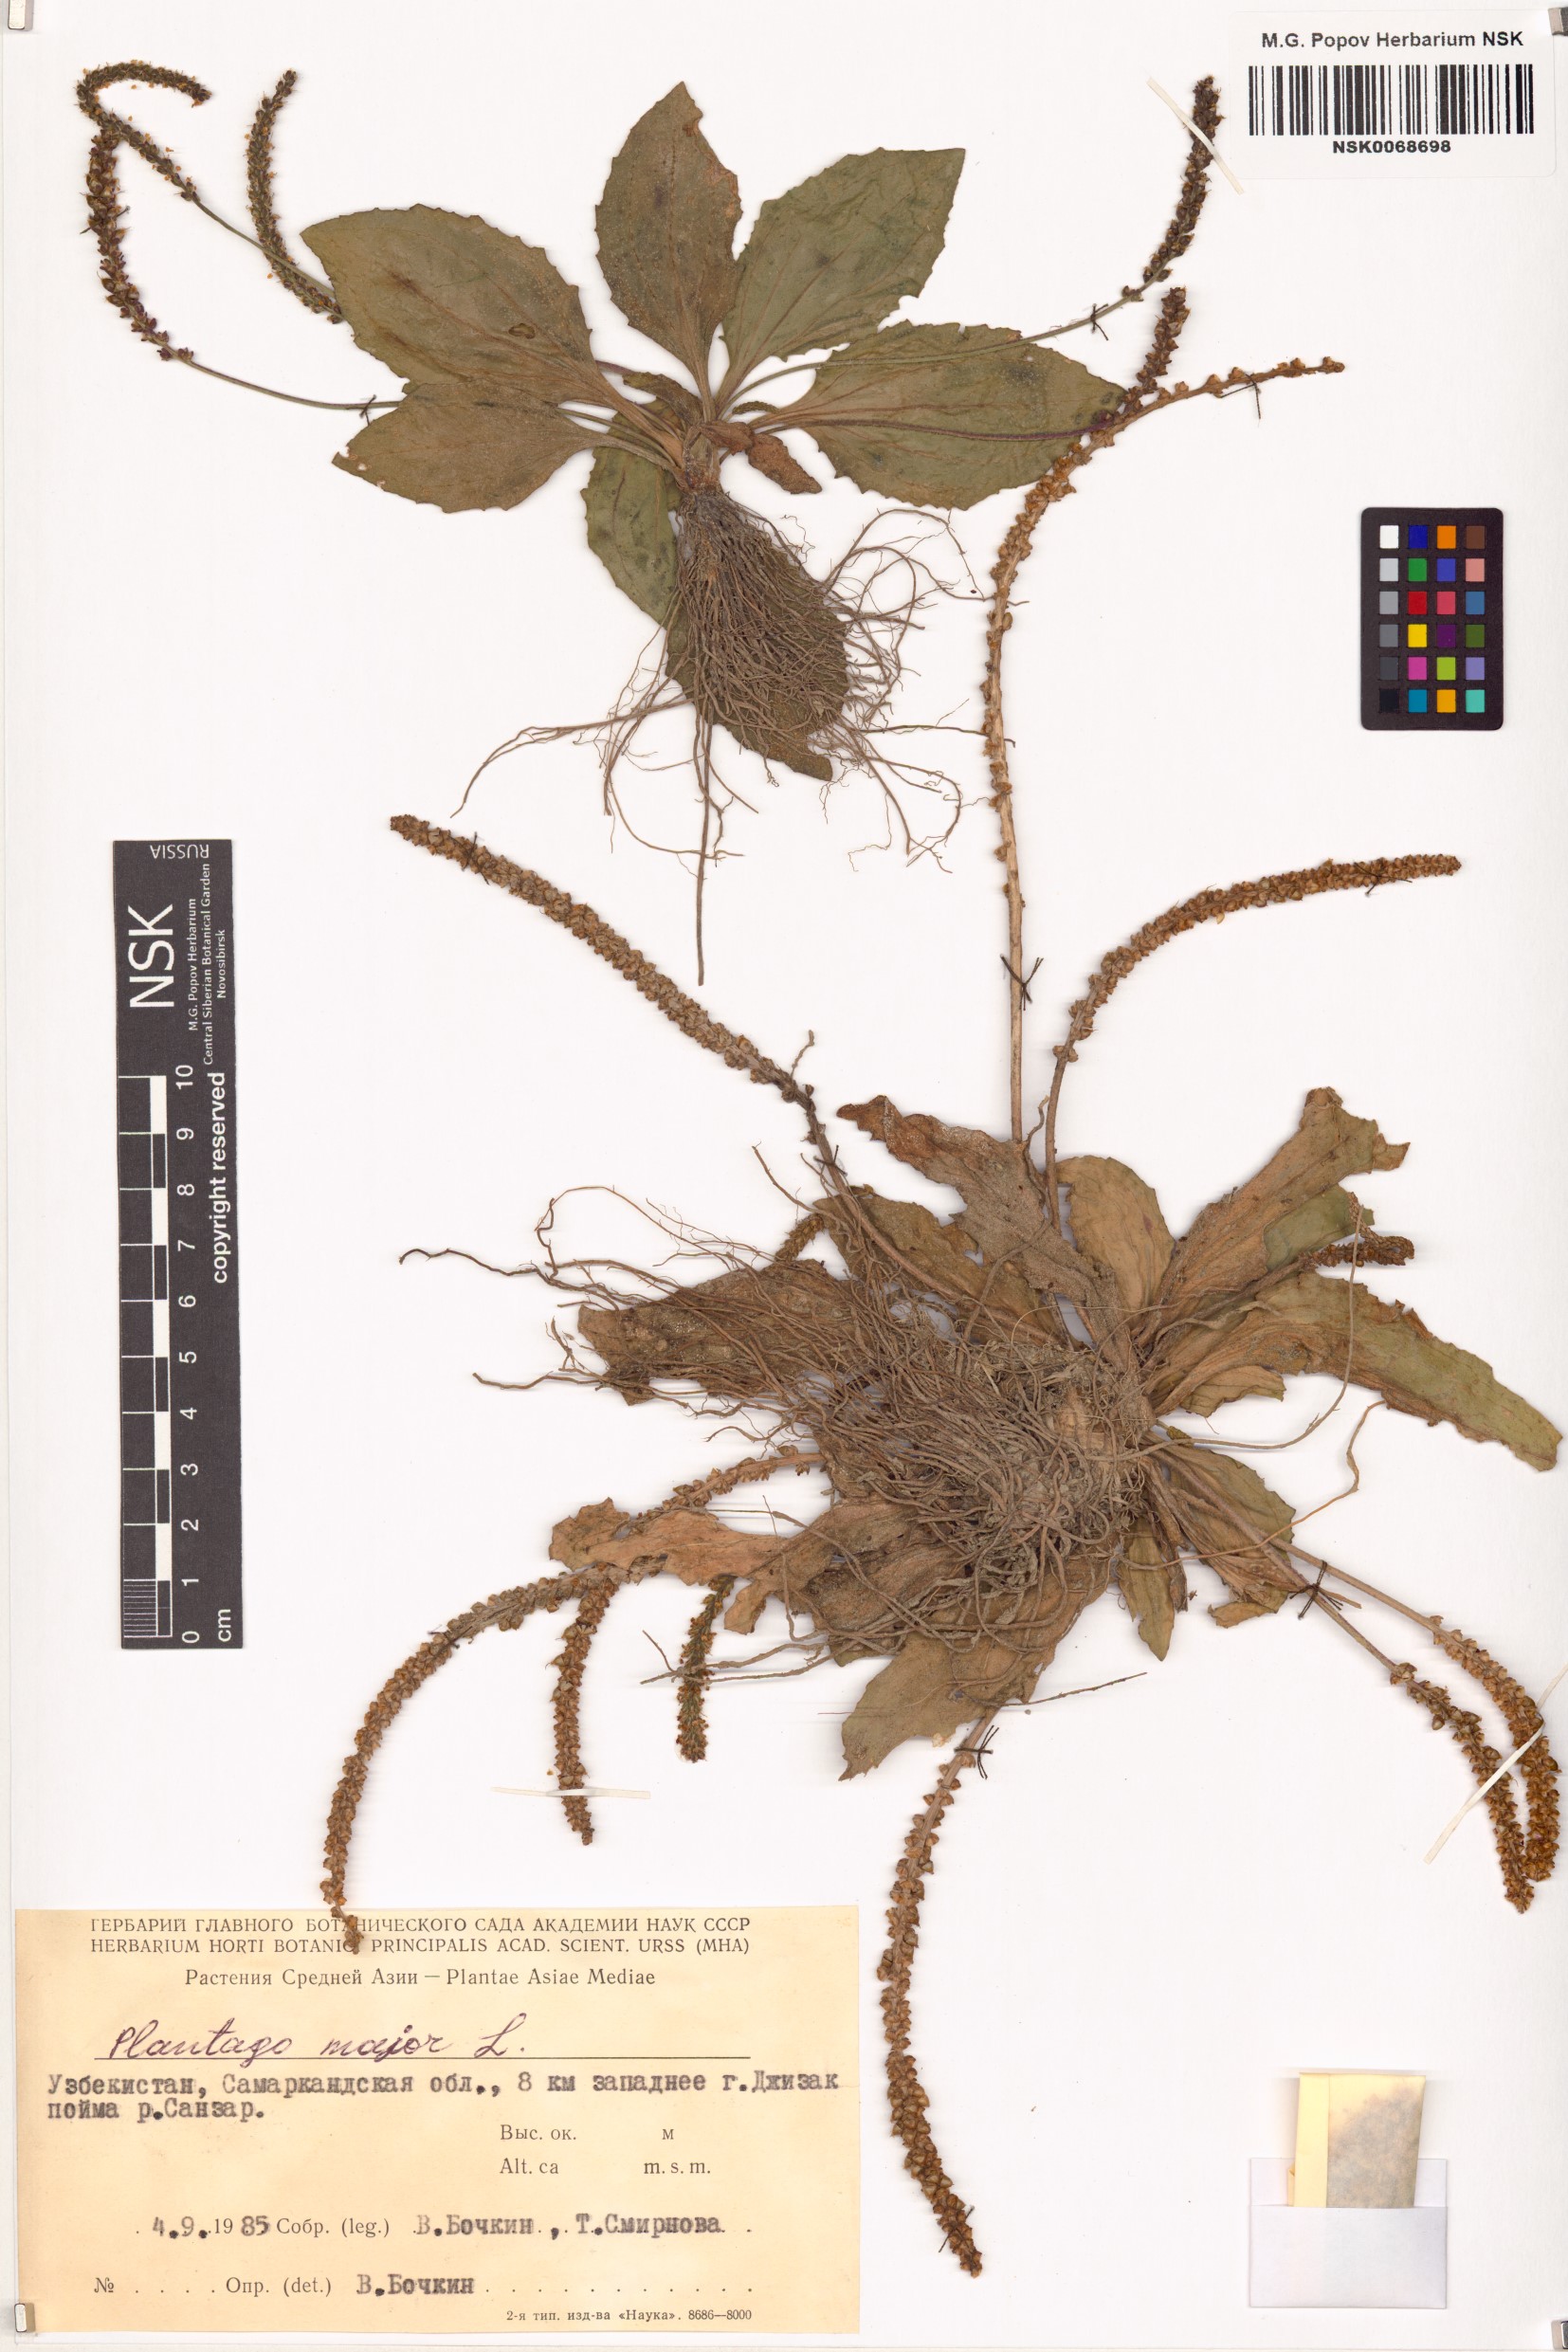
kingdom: Plantae
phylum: Tracheophyta
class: Magnoliopsida
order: Lamiales
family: Plantaginaceae
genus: Plantago
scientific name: Plantago major
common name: Common plantain
